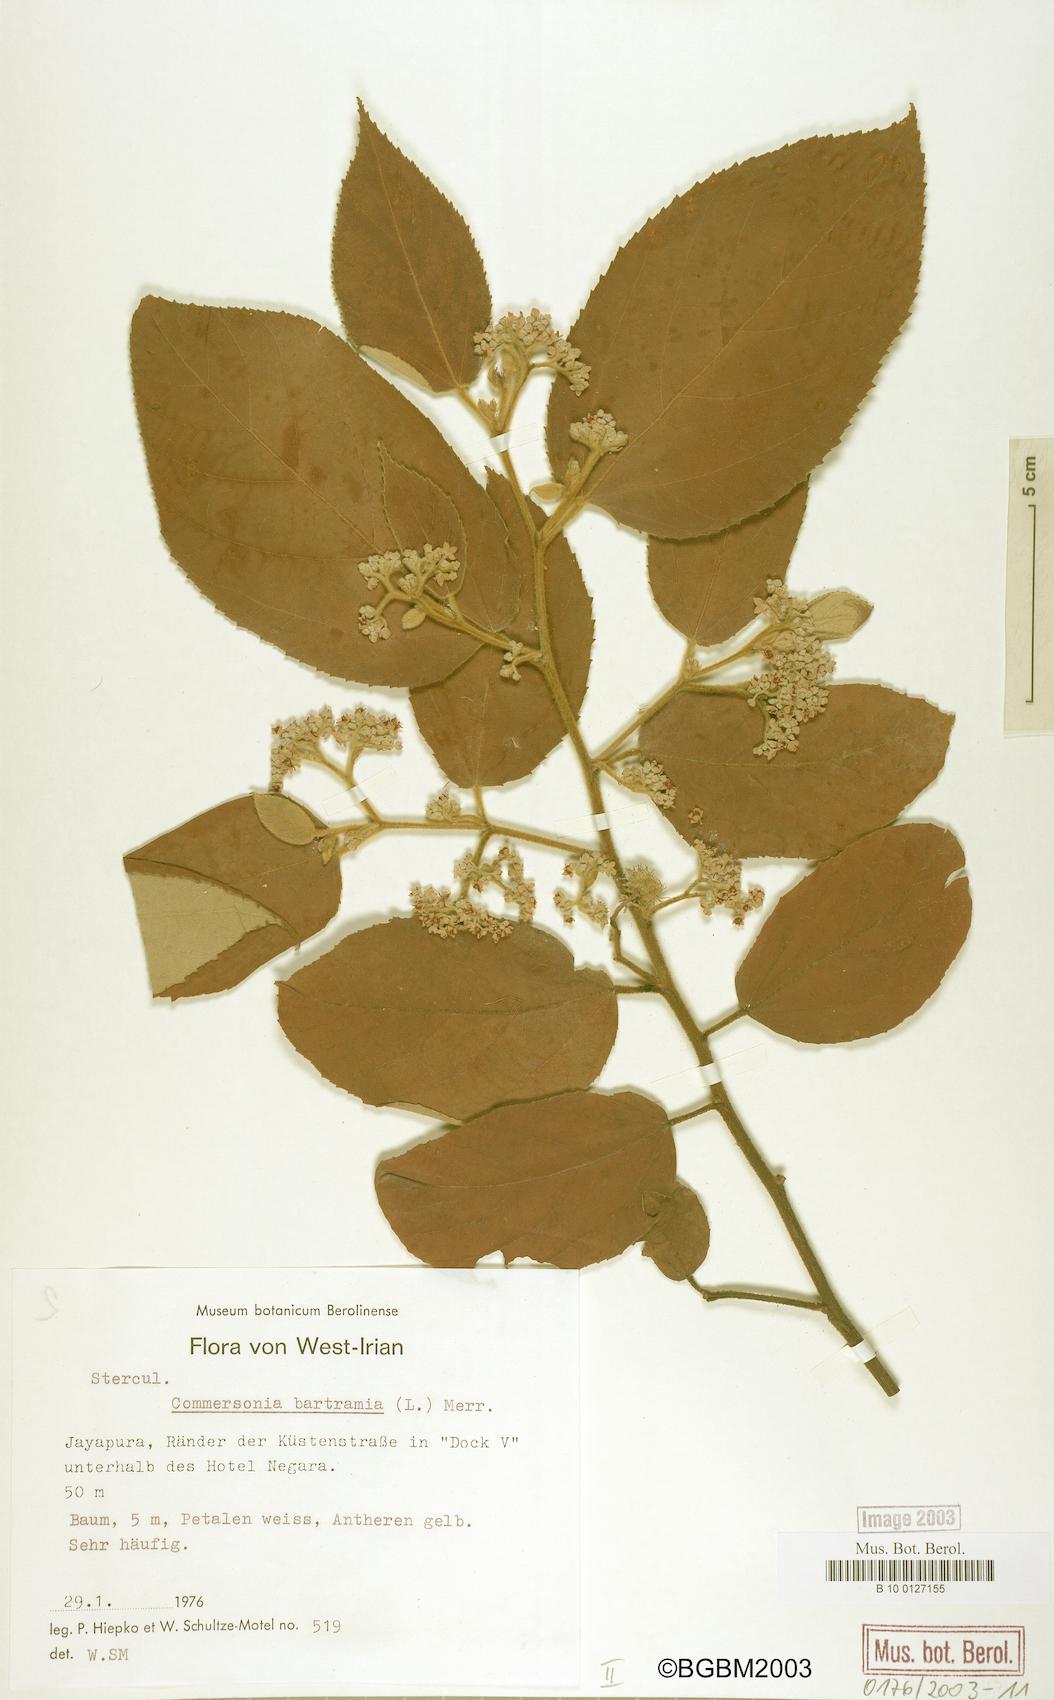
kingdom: Plantae
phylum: Tracheophyta
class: Magnoliopsida
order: Malvales
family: Malvaceae
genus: Commersonia
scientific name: Commersonia bartramia
